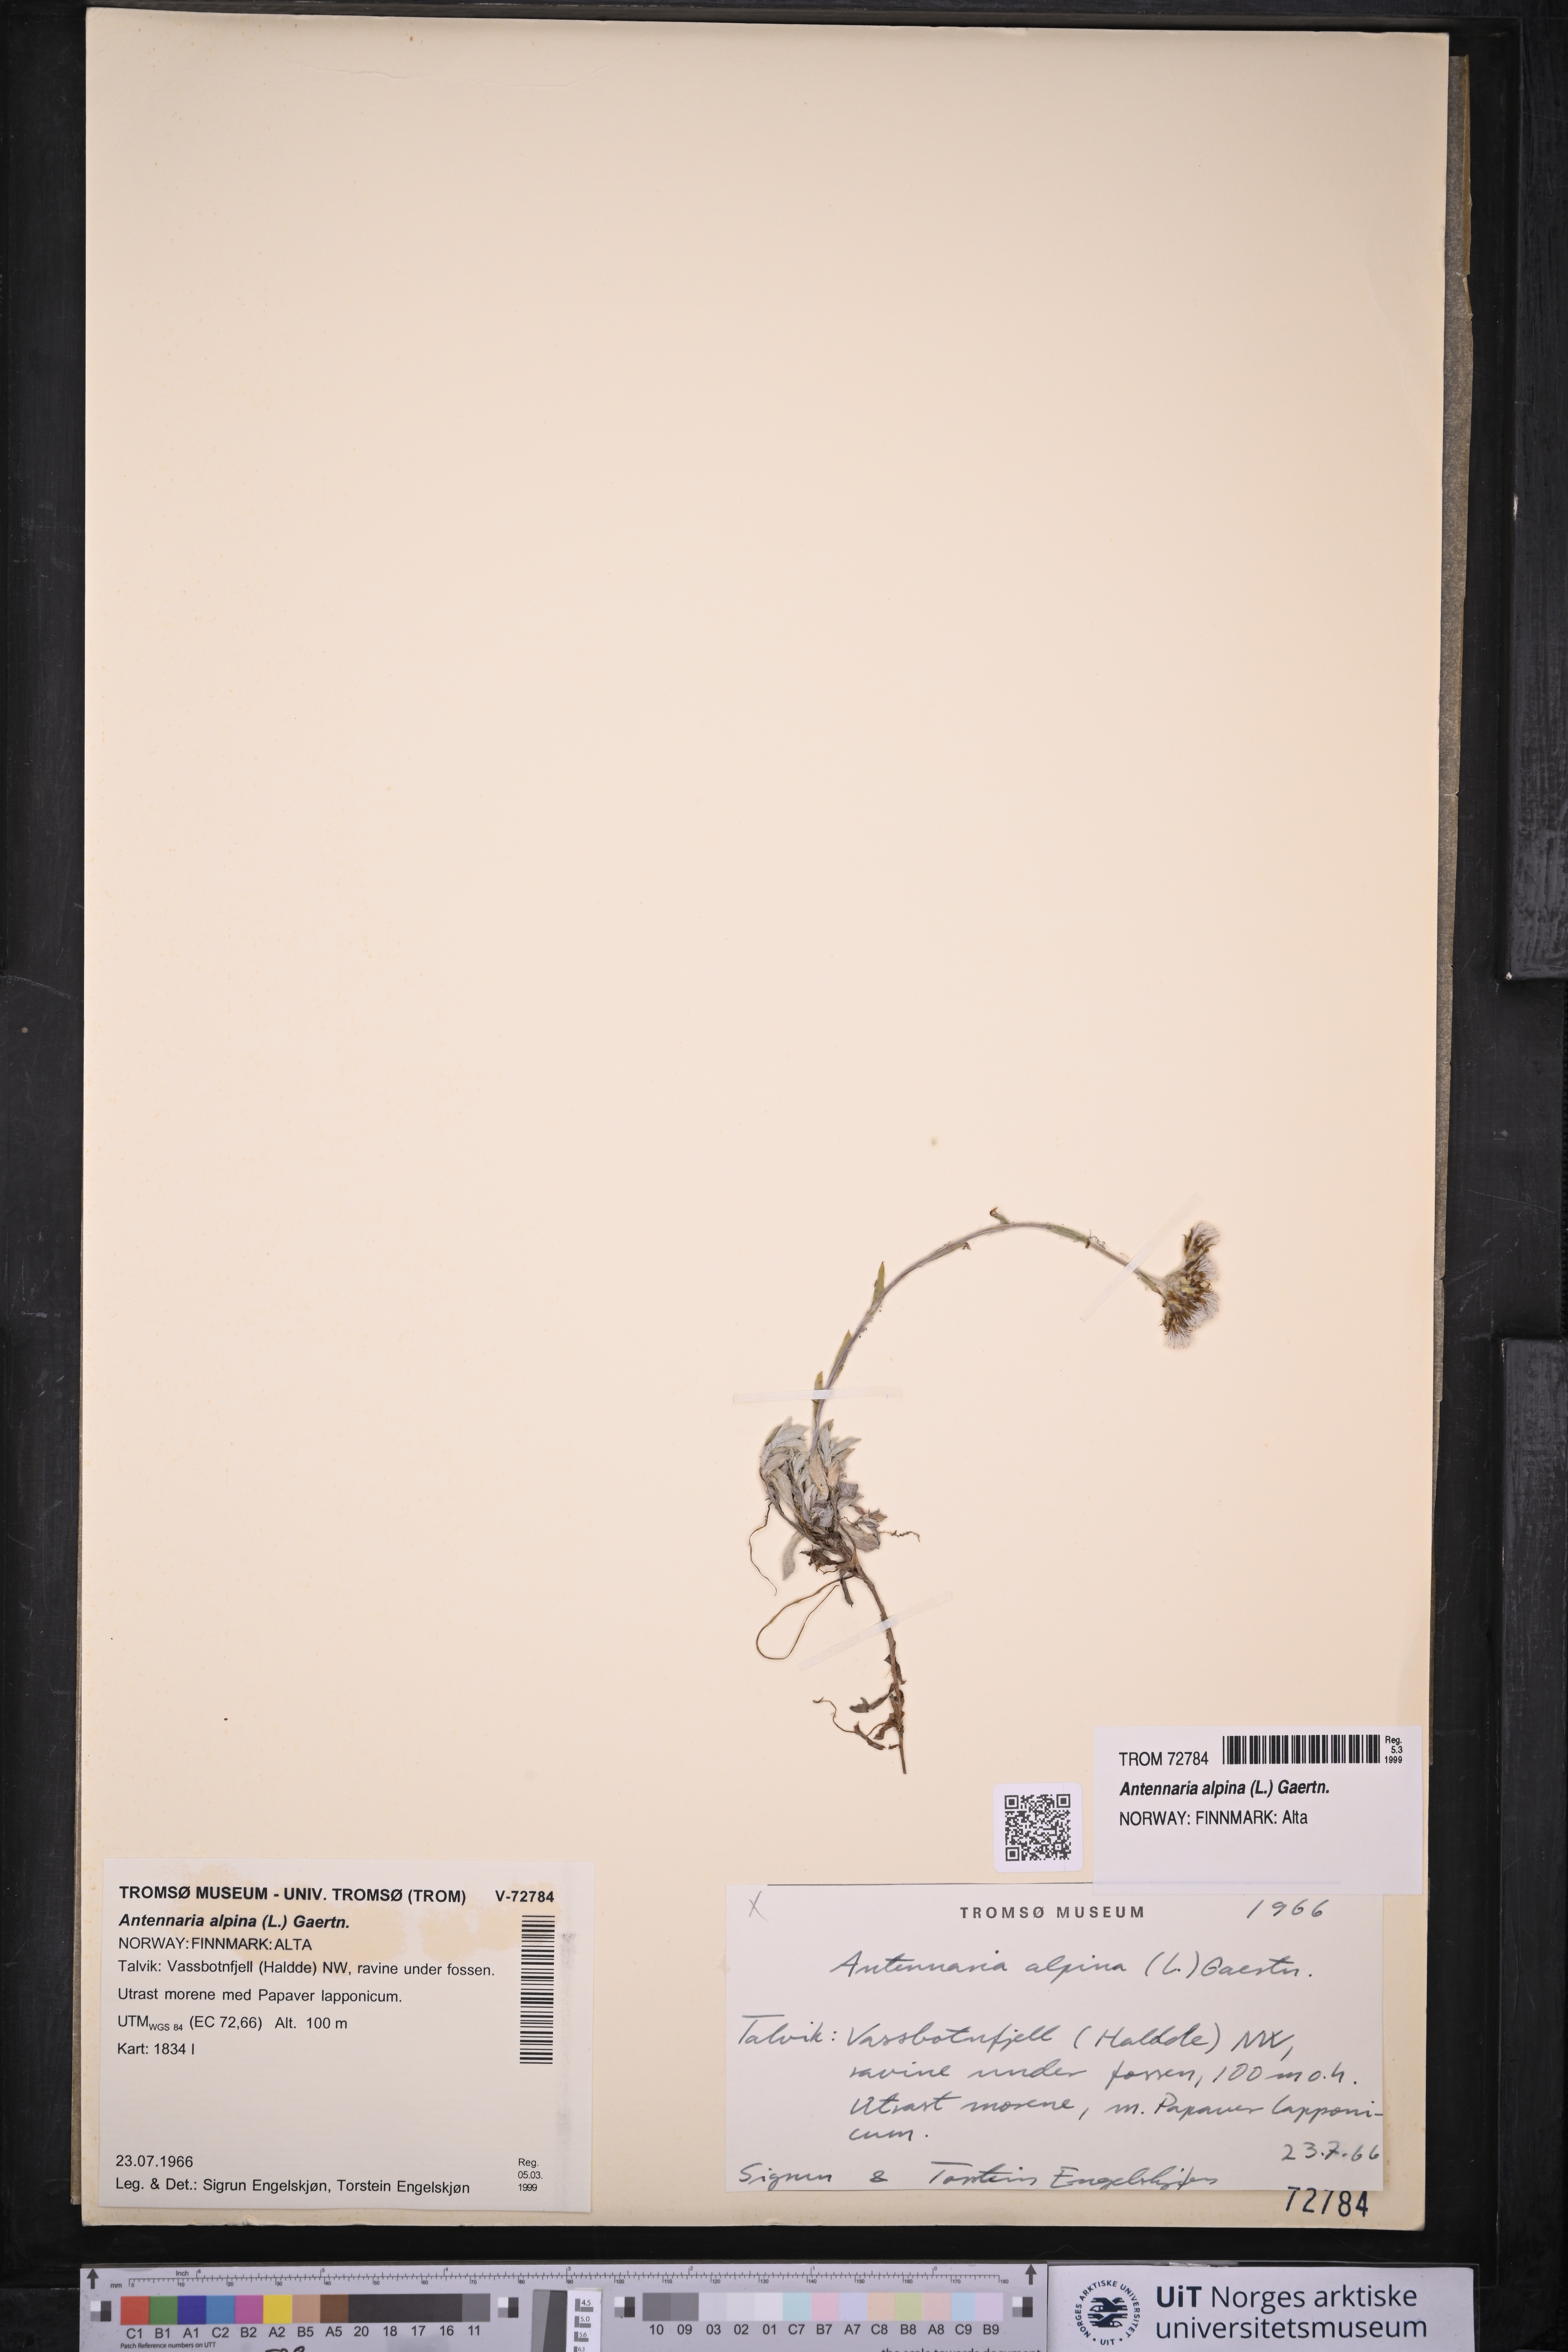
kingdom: Plantae
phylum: Tracheophyta
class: Magnoliopsida
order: Asterales
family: Asteraceae
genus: Antennaria
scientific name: Antennaria alpina
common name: Alpine pussytoes
